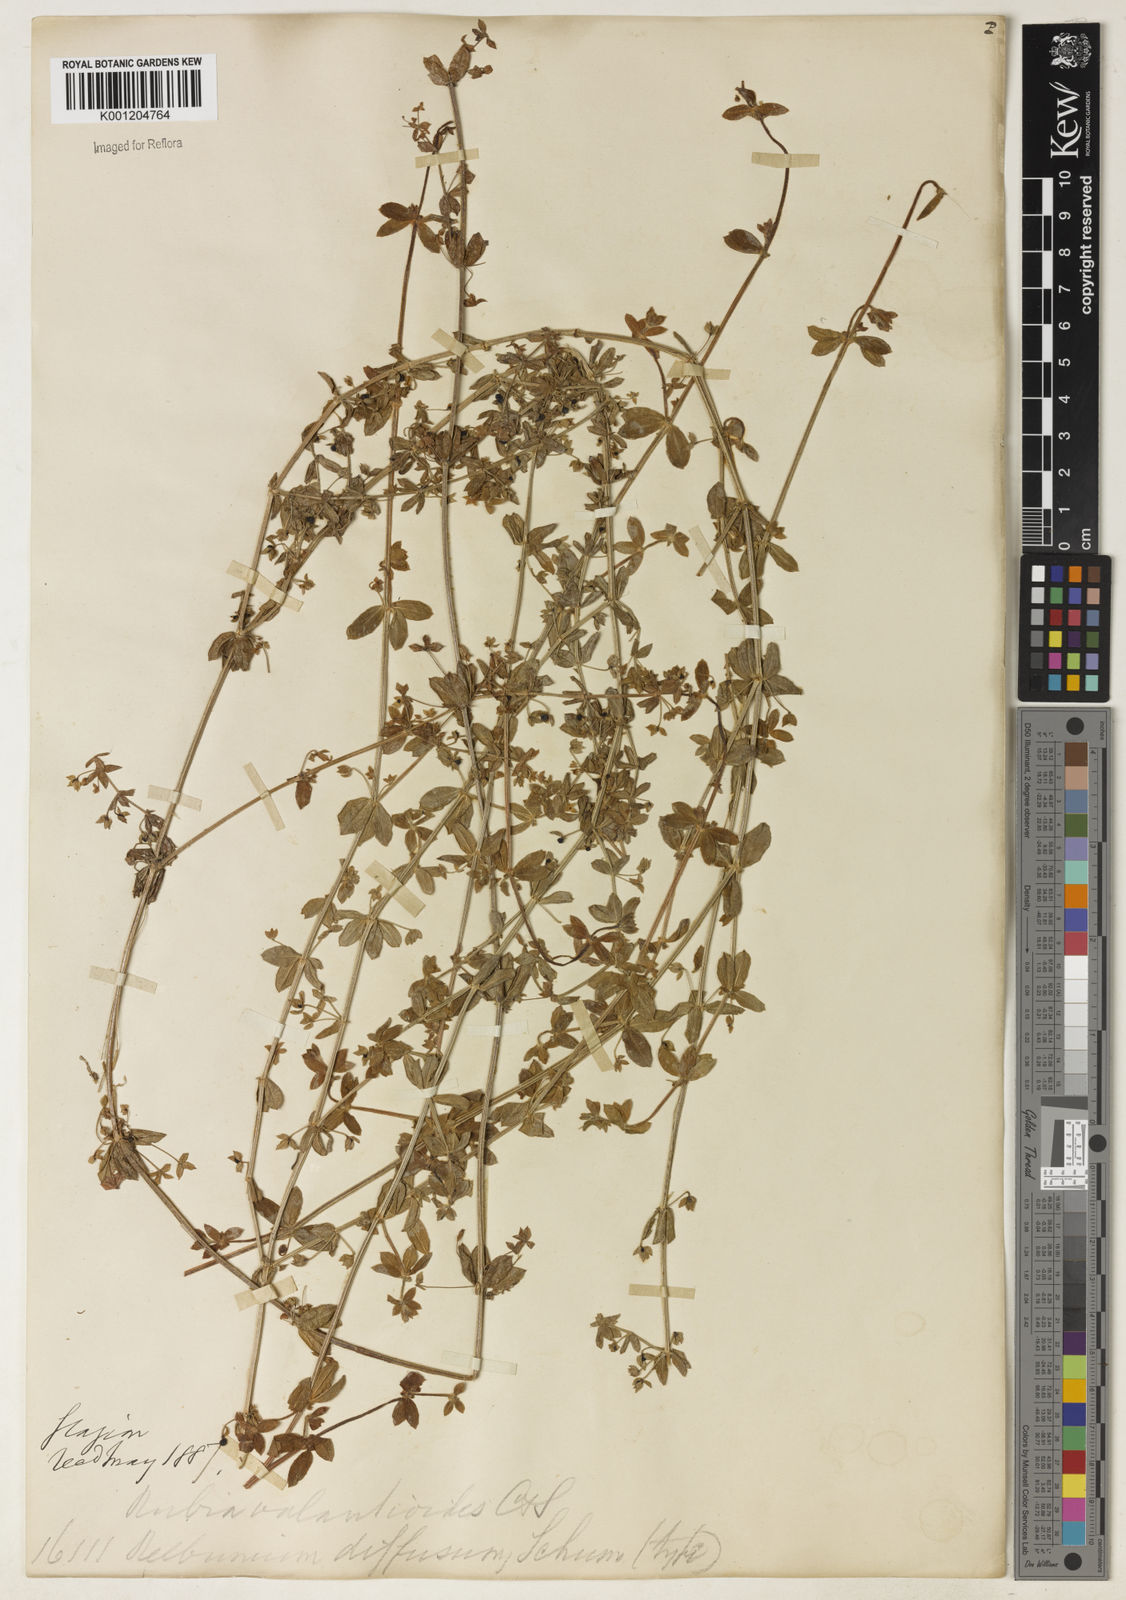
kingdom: Plantae
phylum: Tracheophyta
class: Magnoliopsida
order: Gentianales
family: Rubiaceae
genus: Galium
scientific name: Galium noxium
